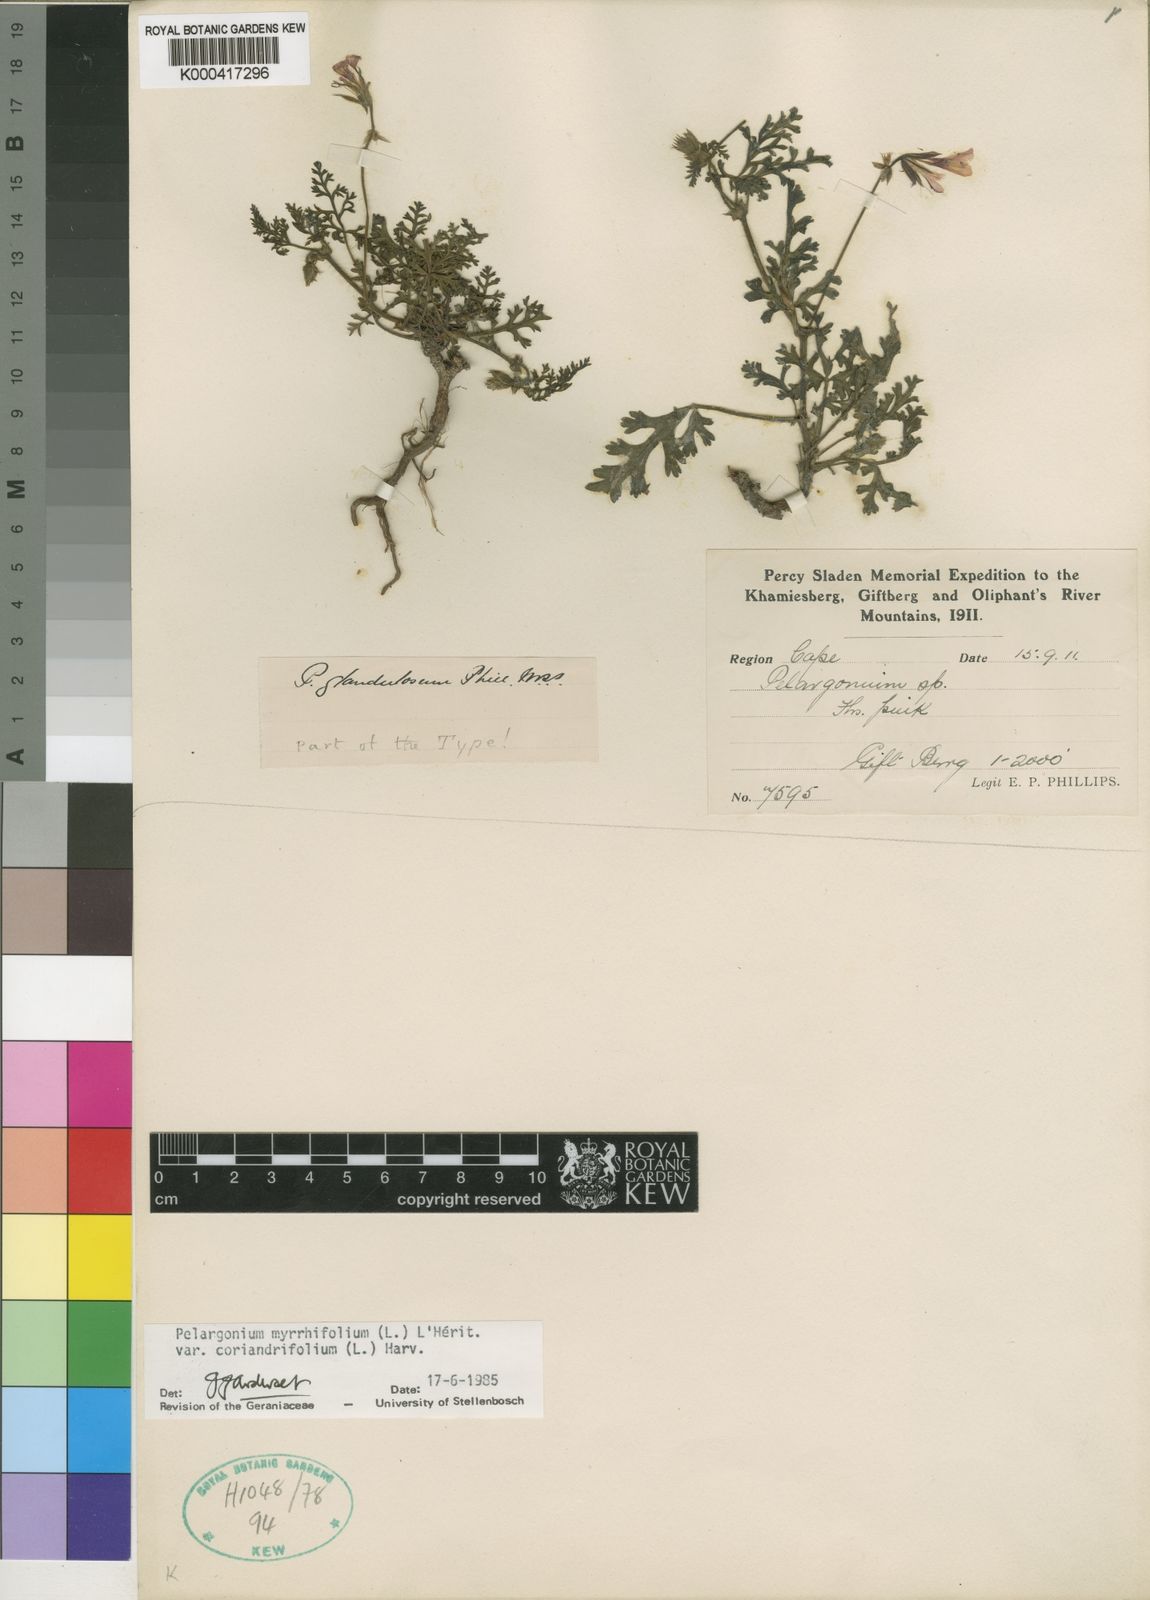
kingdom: Plantae
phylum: Tracheophyta
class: Magnoliopsida
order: Geraniales
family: Geraniaceae
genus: Pelargonium
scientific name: Pelargonium
